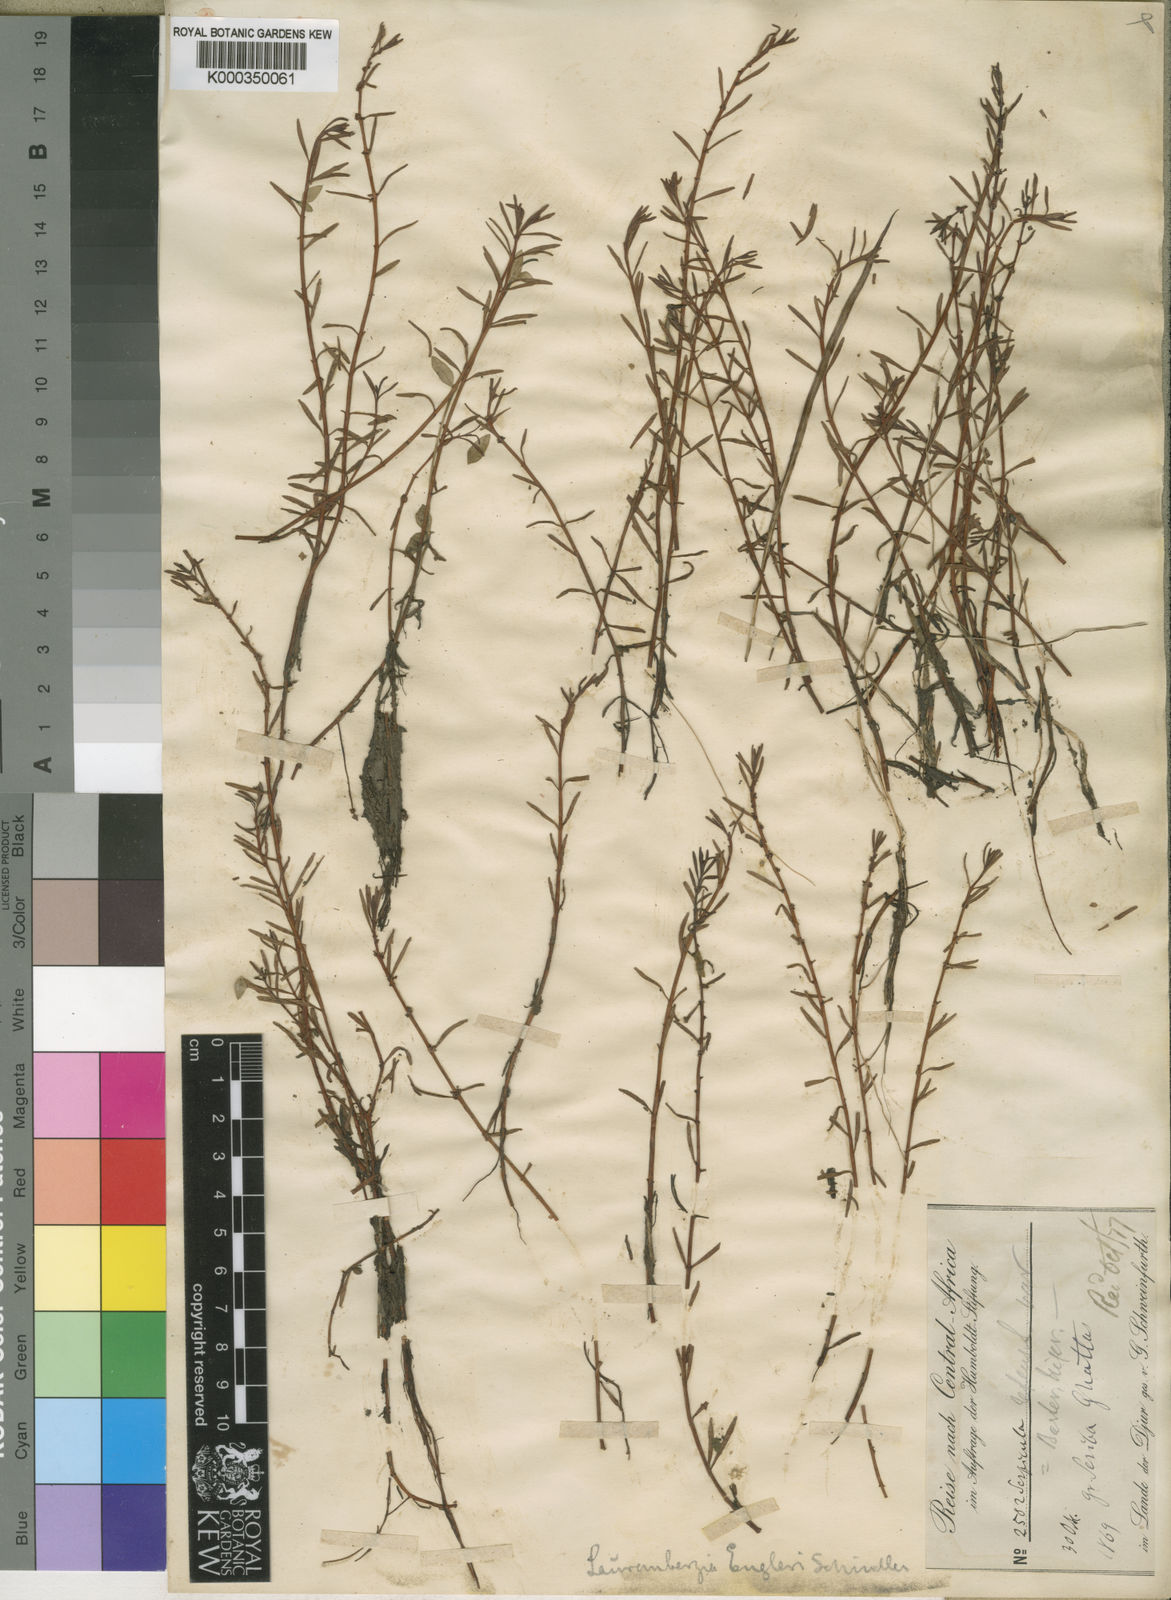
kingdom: Plantae
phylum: Tracheophyta
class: Magnoliopsida
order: Saxifragales
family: Haloragaceae
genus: Laurembergia
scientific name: Laurembergia repens
